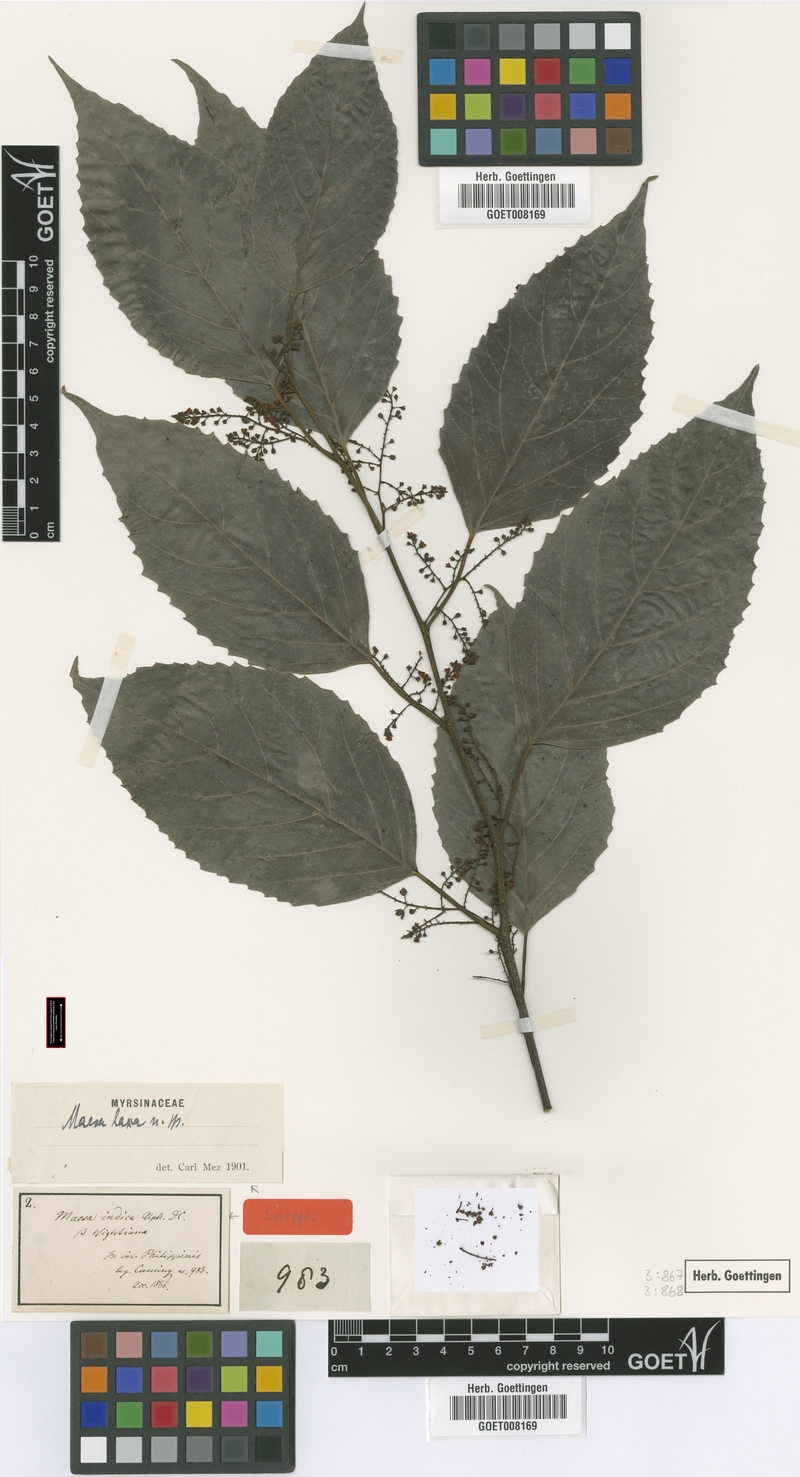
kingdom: Plantae
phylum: Tracheophyta
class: Magnoliopsida
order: Ericales
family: Primulaceae
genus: Maesa
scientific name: Maesa indica
